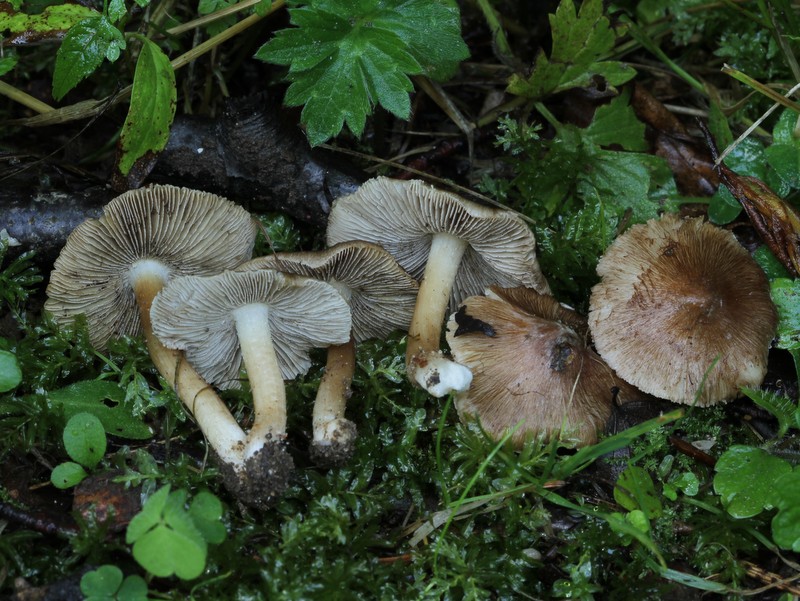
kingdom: Fungi
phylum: Basidiomycota
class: Agaricomycetes
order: Agaricales
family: Inocybaceae
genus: Inosperma
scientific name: Inosperma
